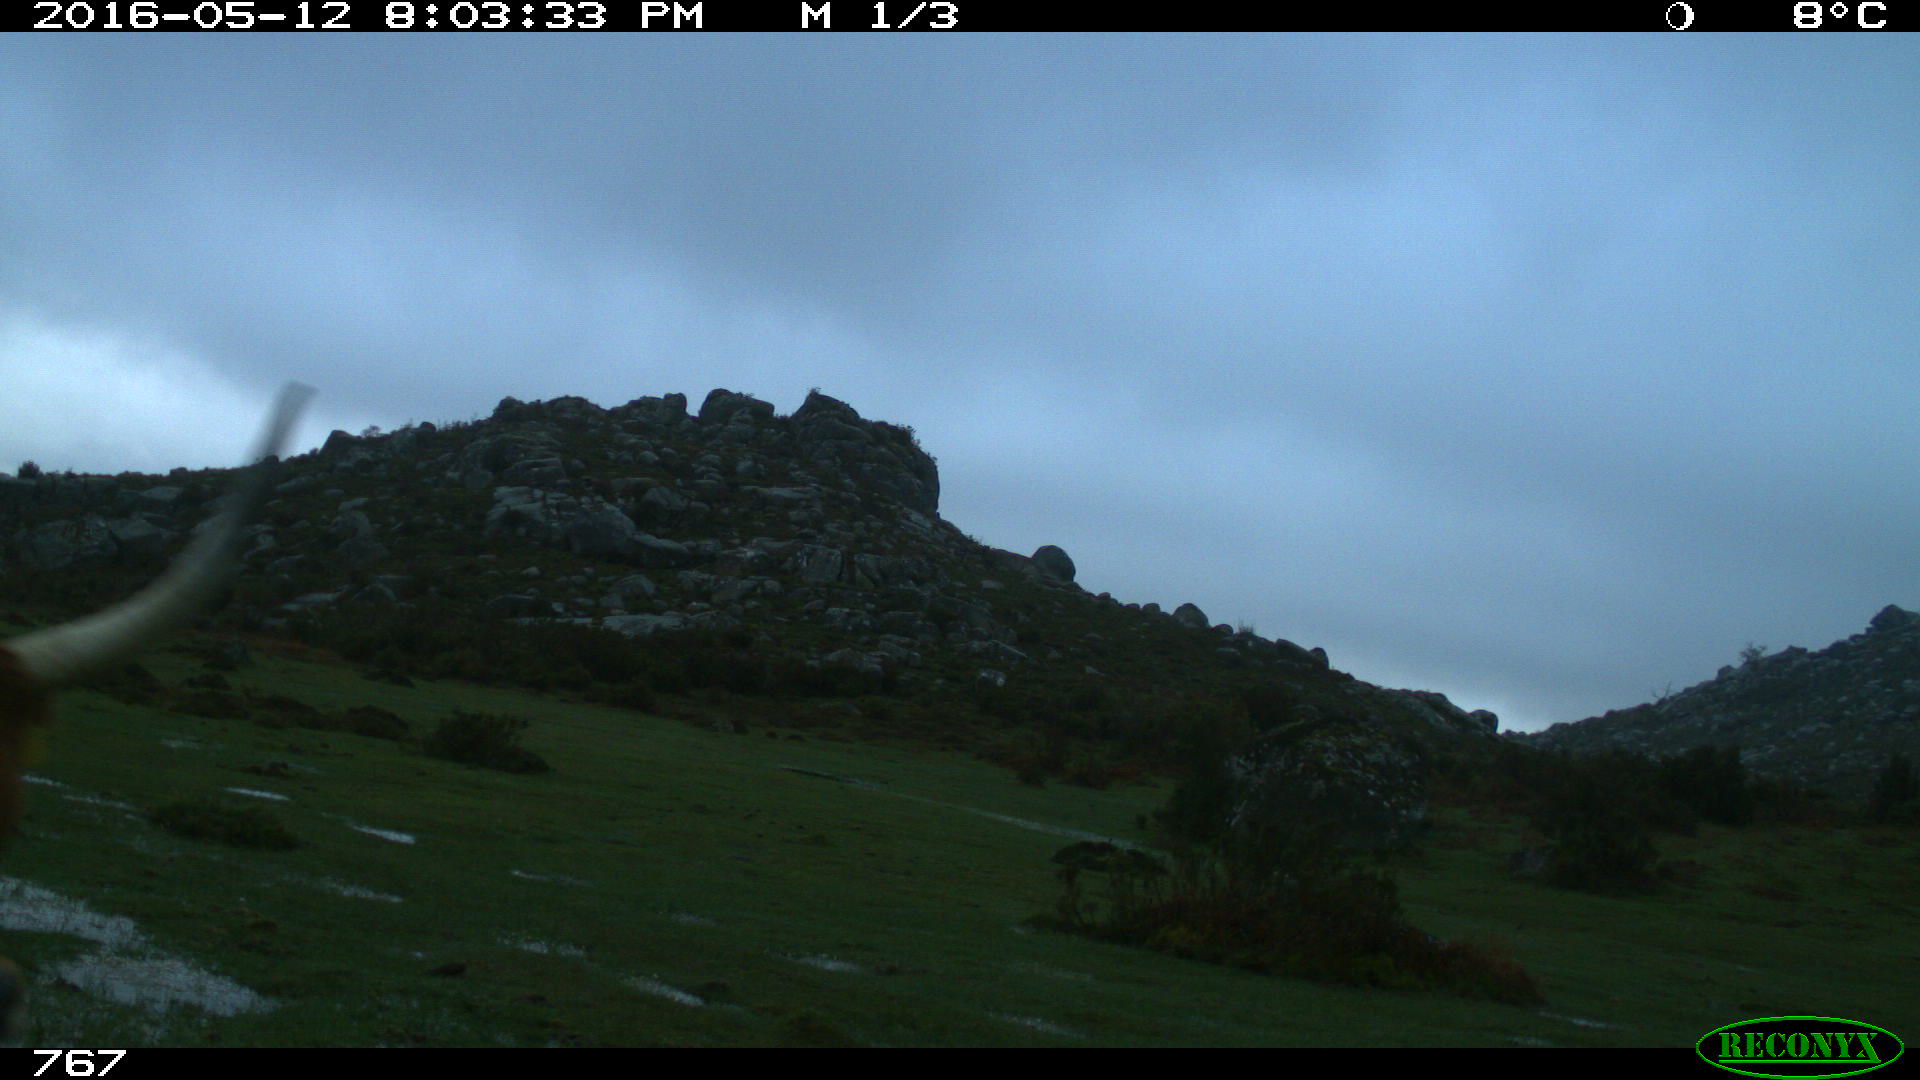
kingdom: Animalia
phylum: Chordata
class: Mammalia
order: Artiodactyla
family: Bovidae
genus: Bos
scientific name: Bos taurus
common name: Domesticated cattle
